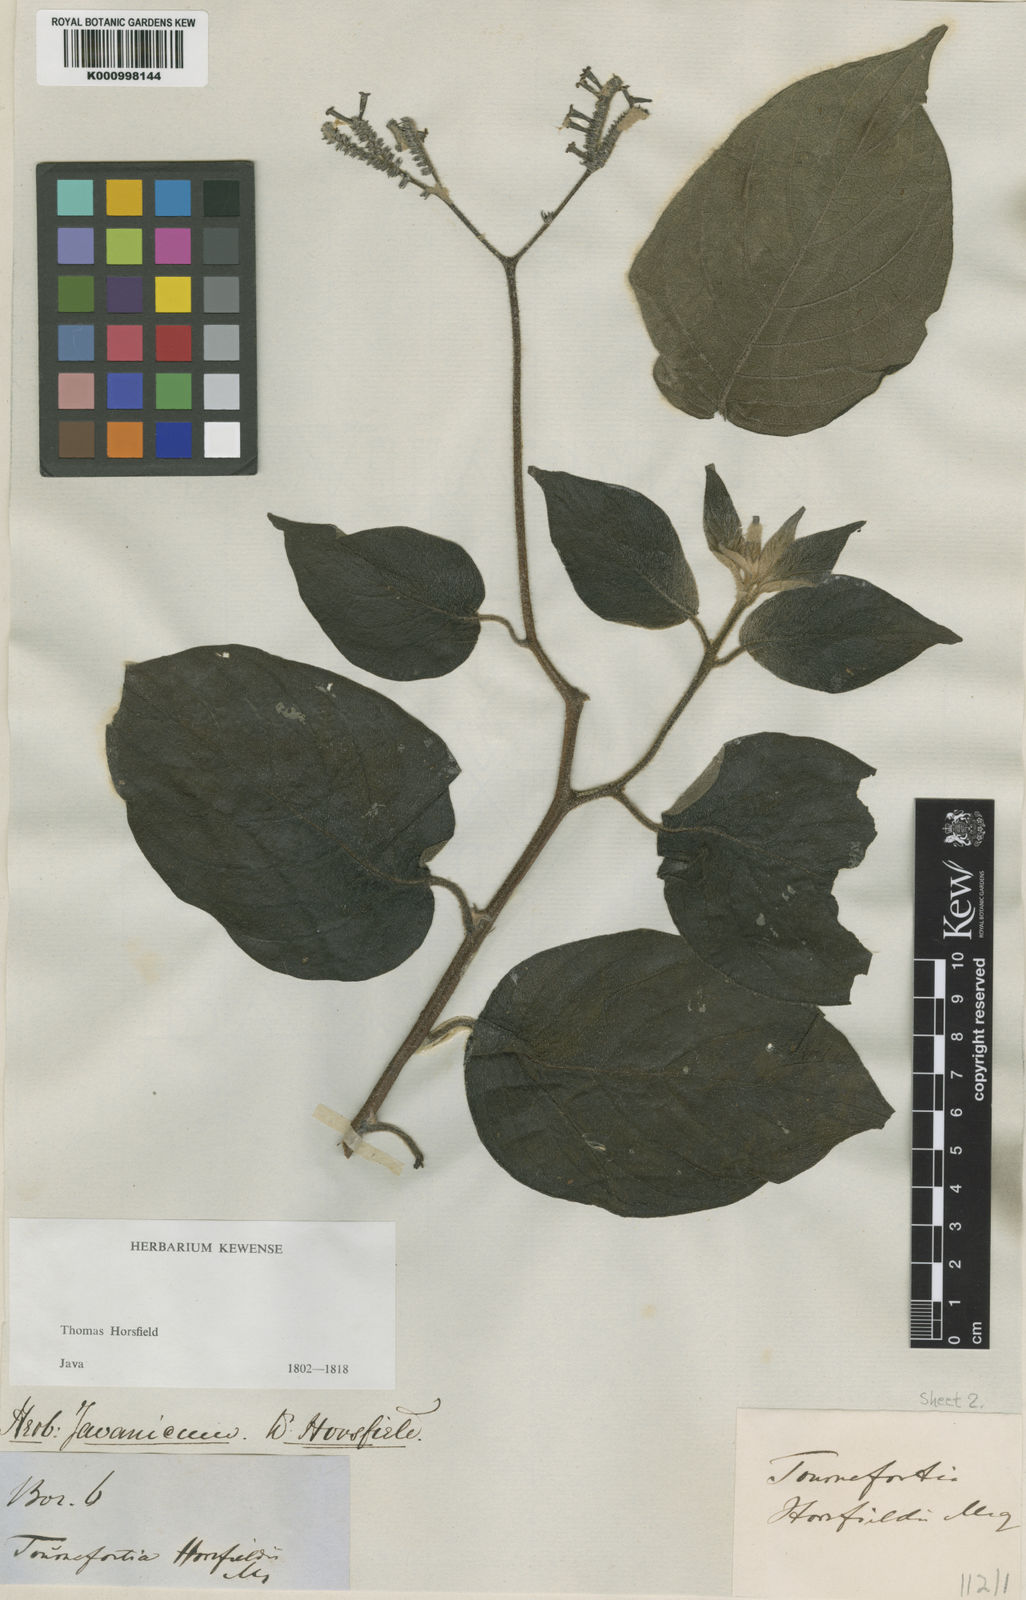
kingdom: Plantae
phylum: Tracheophyta
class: Magnoliopsida
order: Boraginales
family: Heliotropiaceae
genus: Heliotropium
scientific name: Heliotropium sarmentosum
